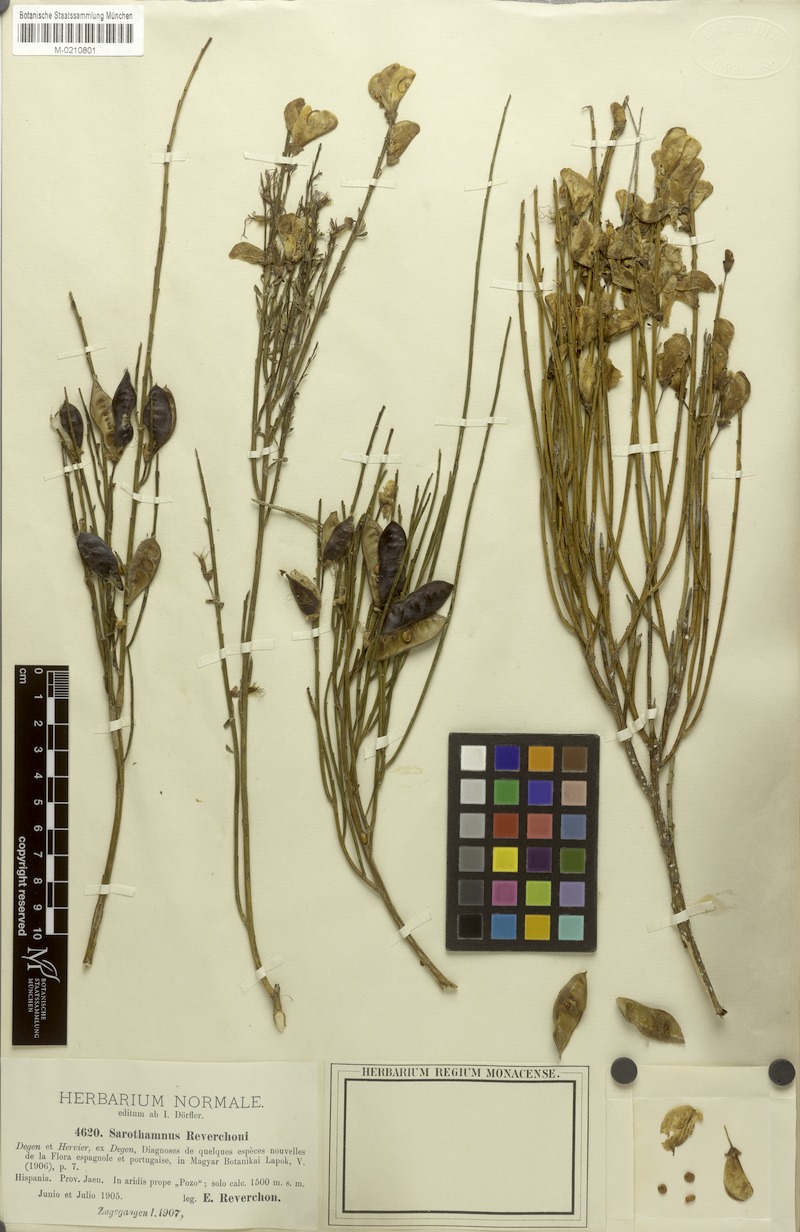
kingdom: Plantae
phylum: Tracheophyta
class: Magnoliopsida
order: Fabales
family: Fabaceae
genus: Cytisus
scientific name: Cytisus scoparius
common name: Scotch broom
